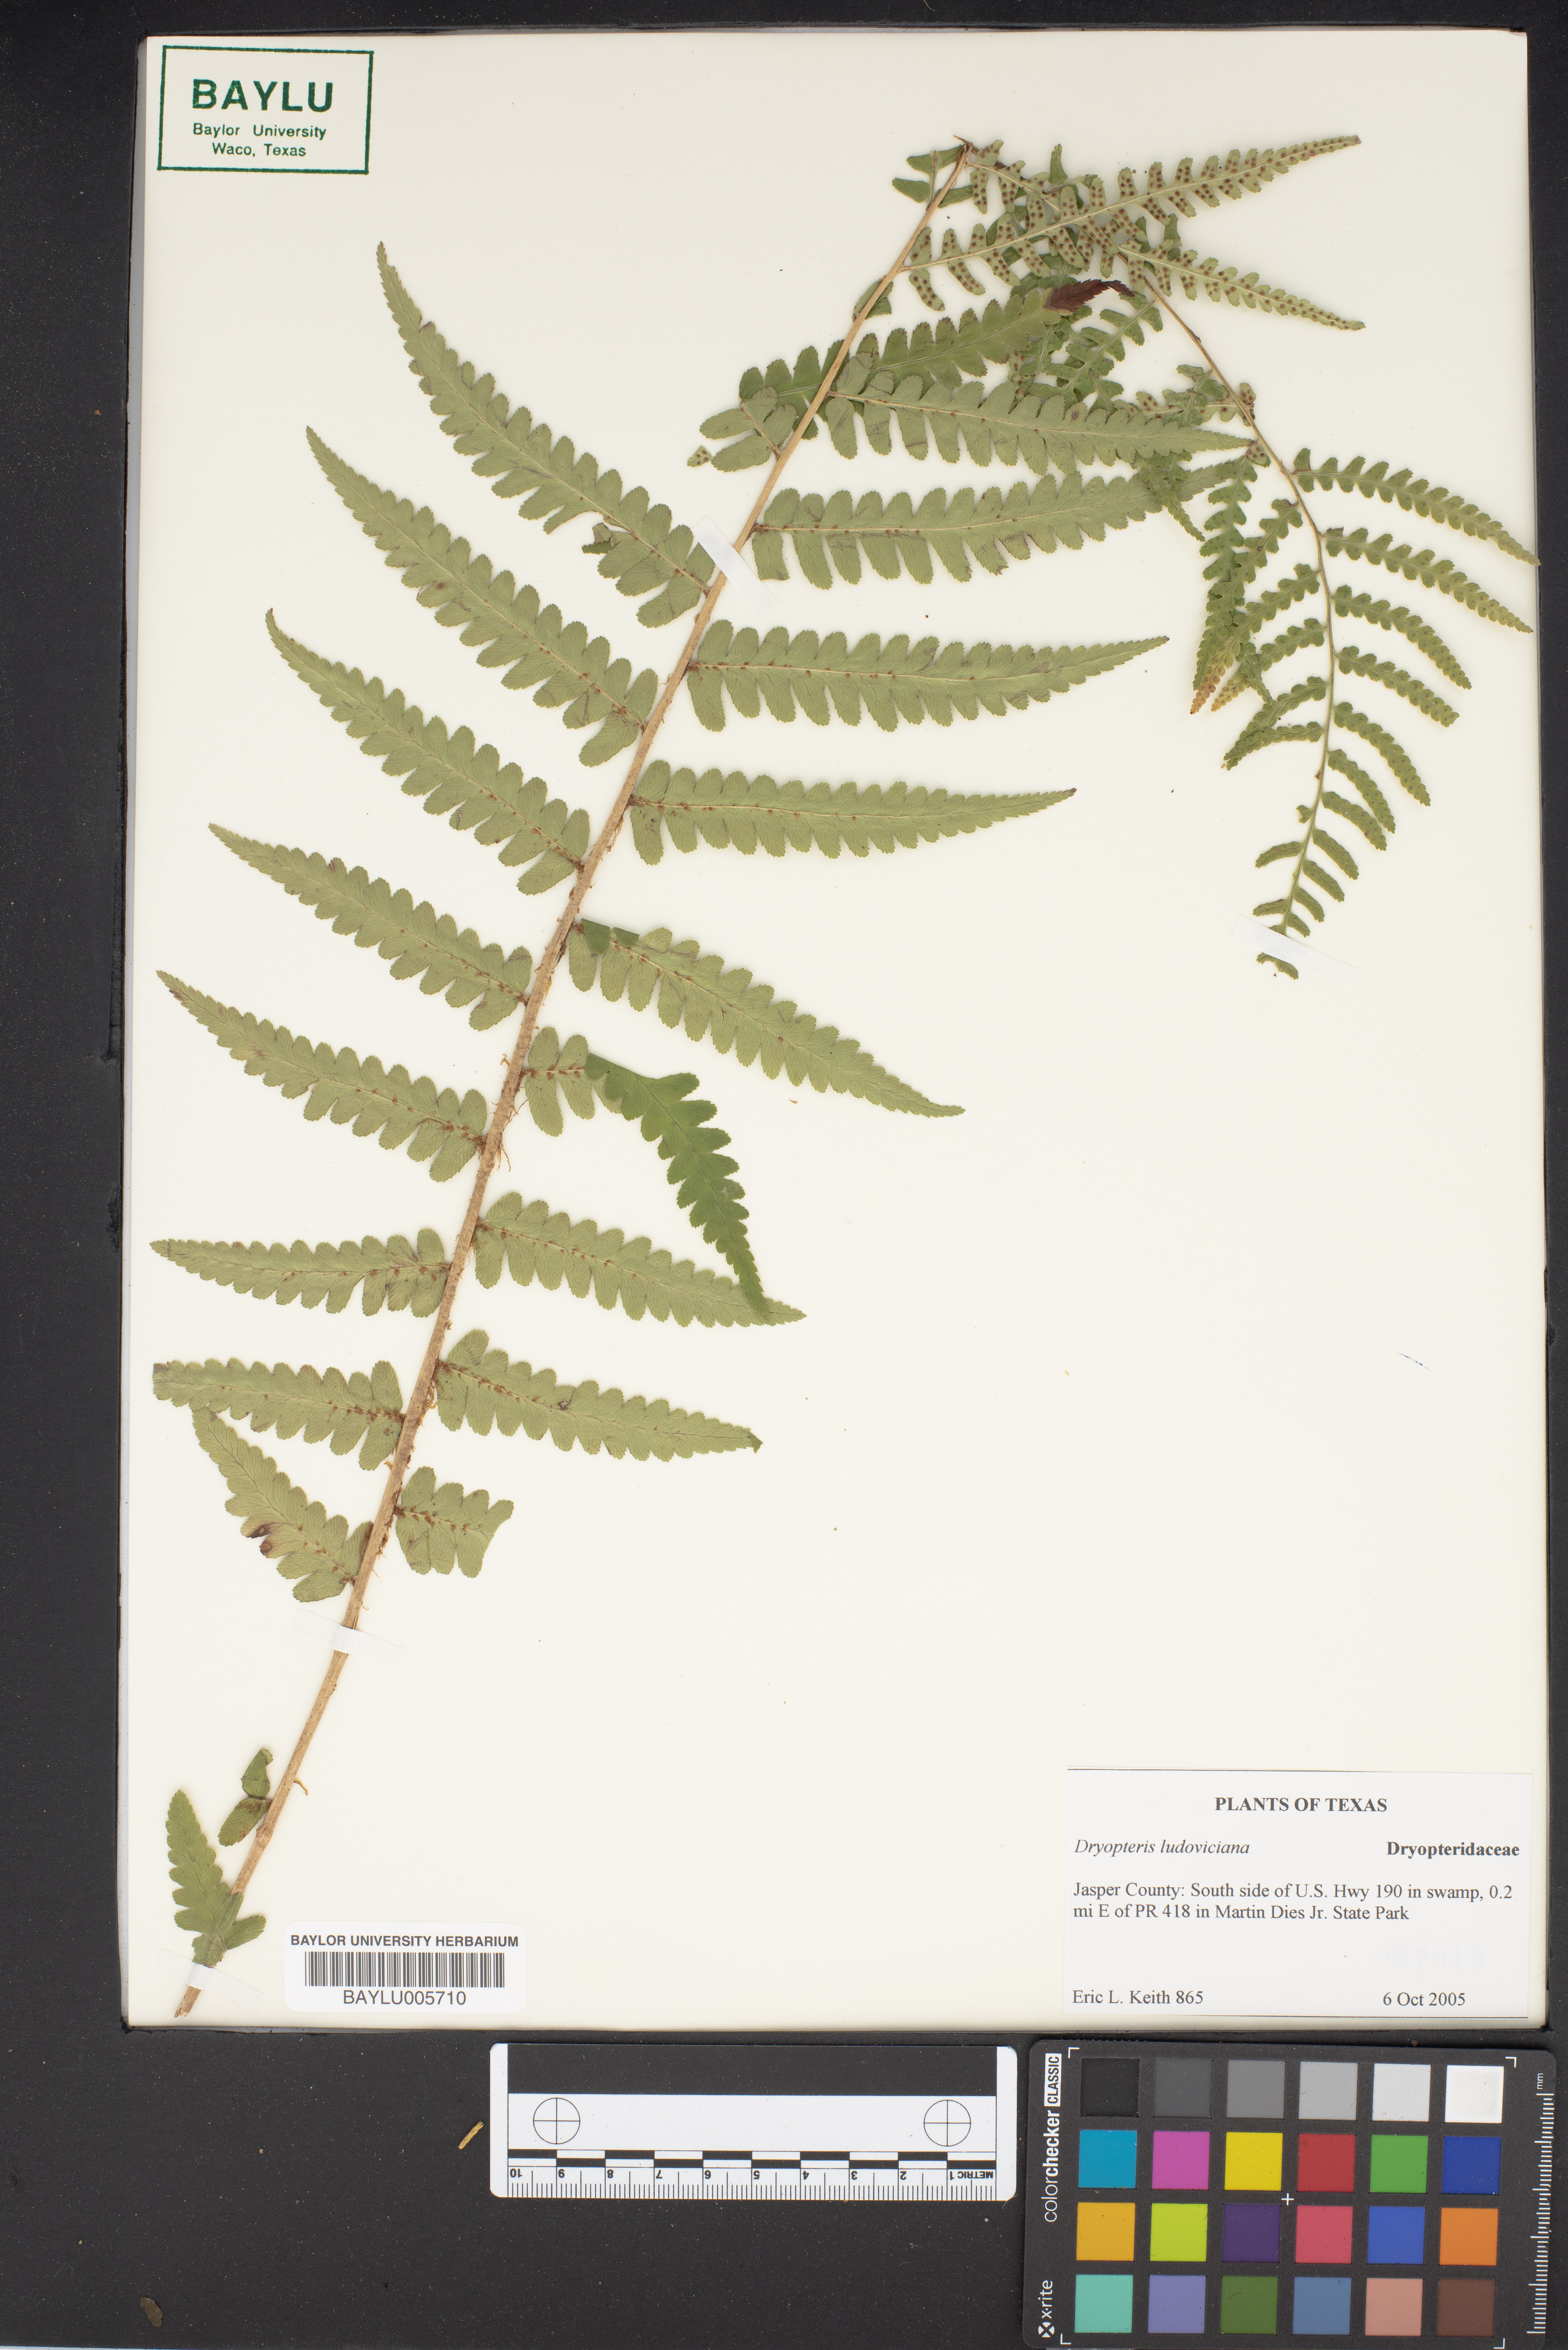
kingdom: Plantae
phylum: Tracheophyta
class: Polypodiopsida
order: Polypodiales
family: Dryopteridaceae
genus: Dryopteris
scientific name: Dryopteris ludoviciana
